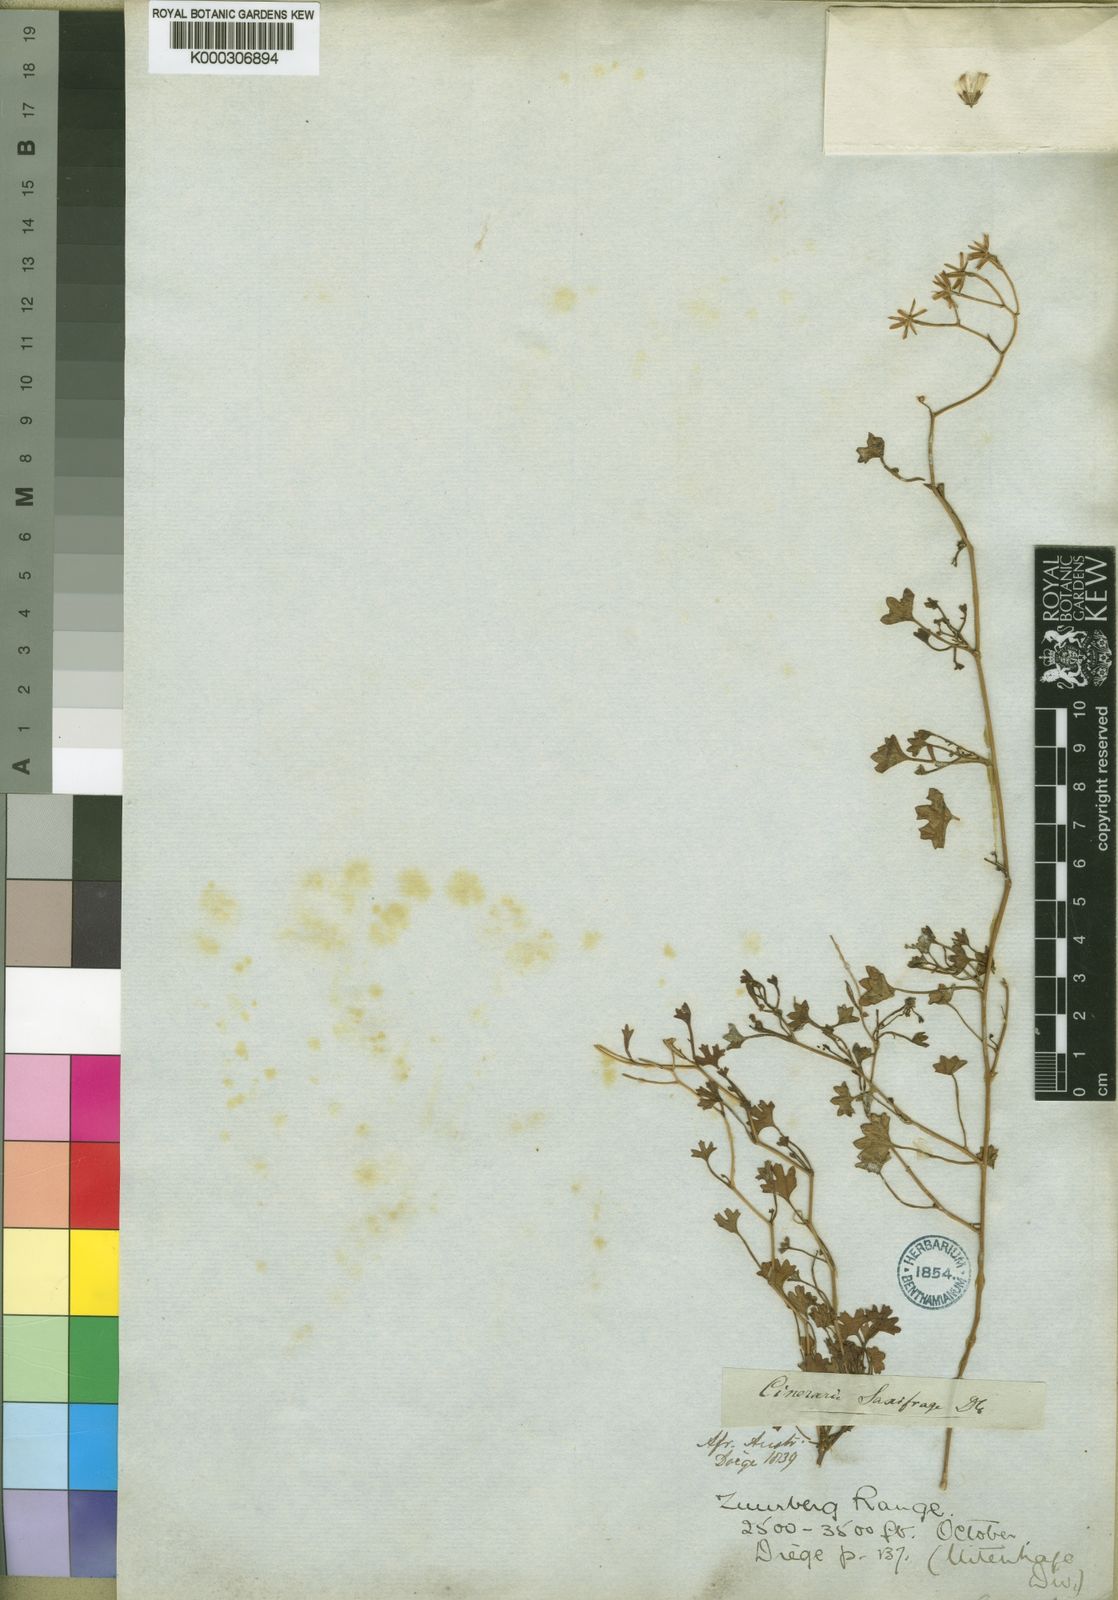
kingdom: Plantae
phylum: Tracheophyta
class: Magnoliopsida
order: Asterales
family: Asteraceae
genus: Cineraria
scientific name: Cineraria saxifraga
